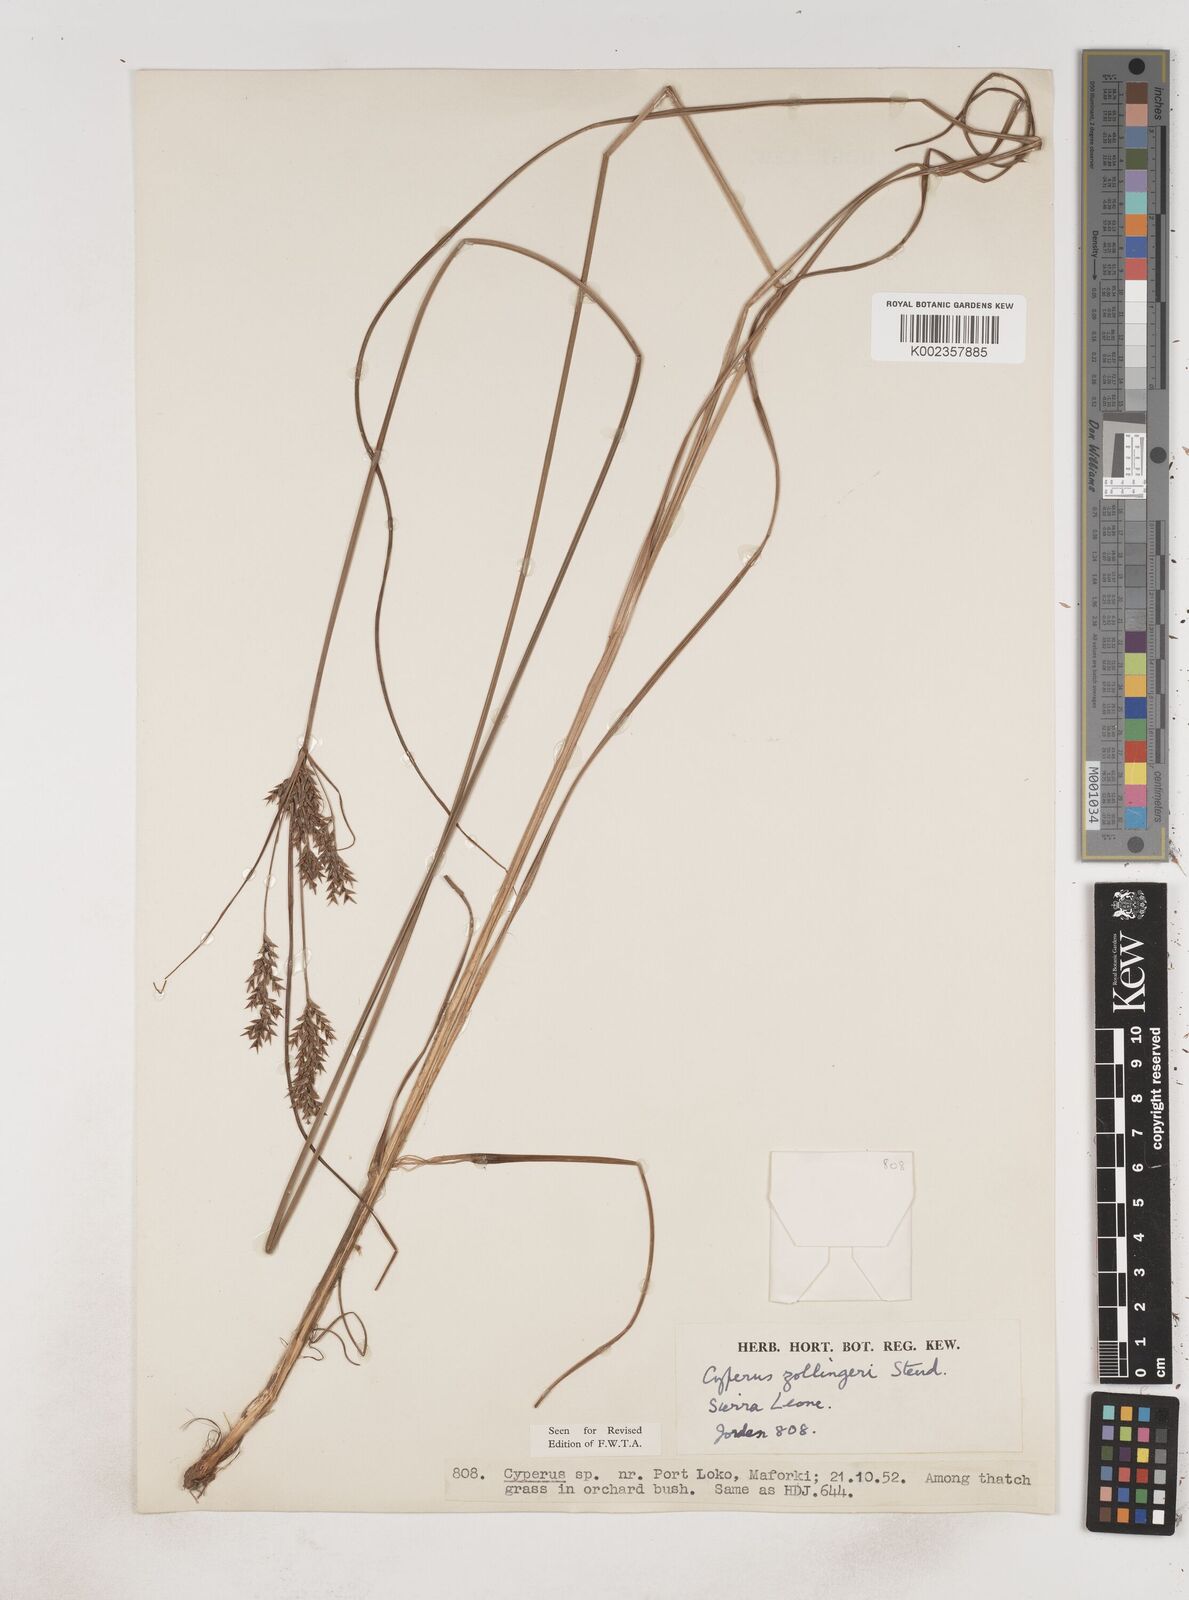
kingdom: Plantae
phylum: Tracheophyta
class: Liliopsida
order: Poales
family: Cyperaceae
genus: Cyperus
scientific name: Cyperus
